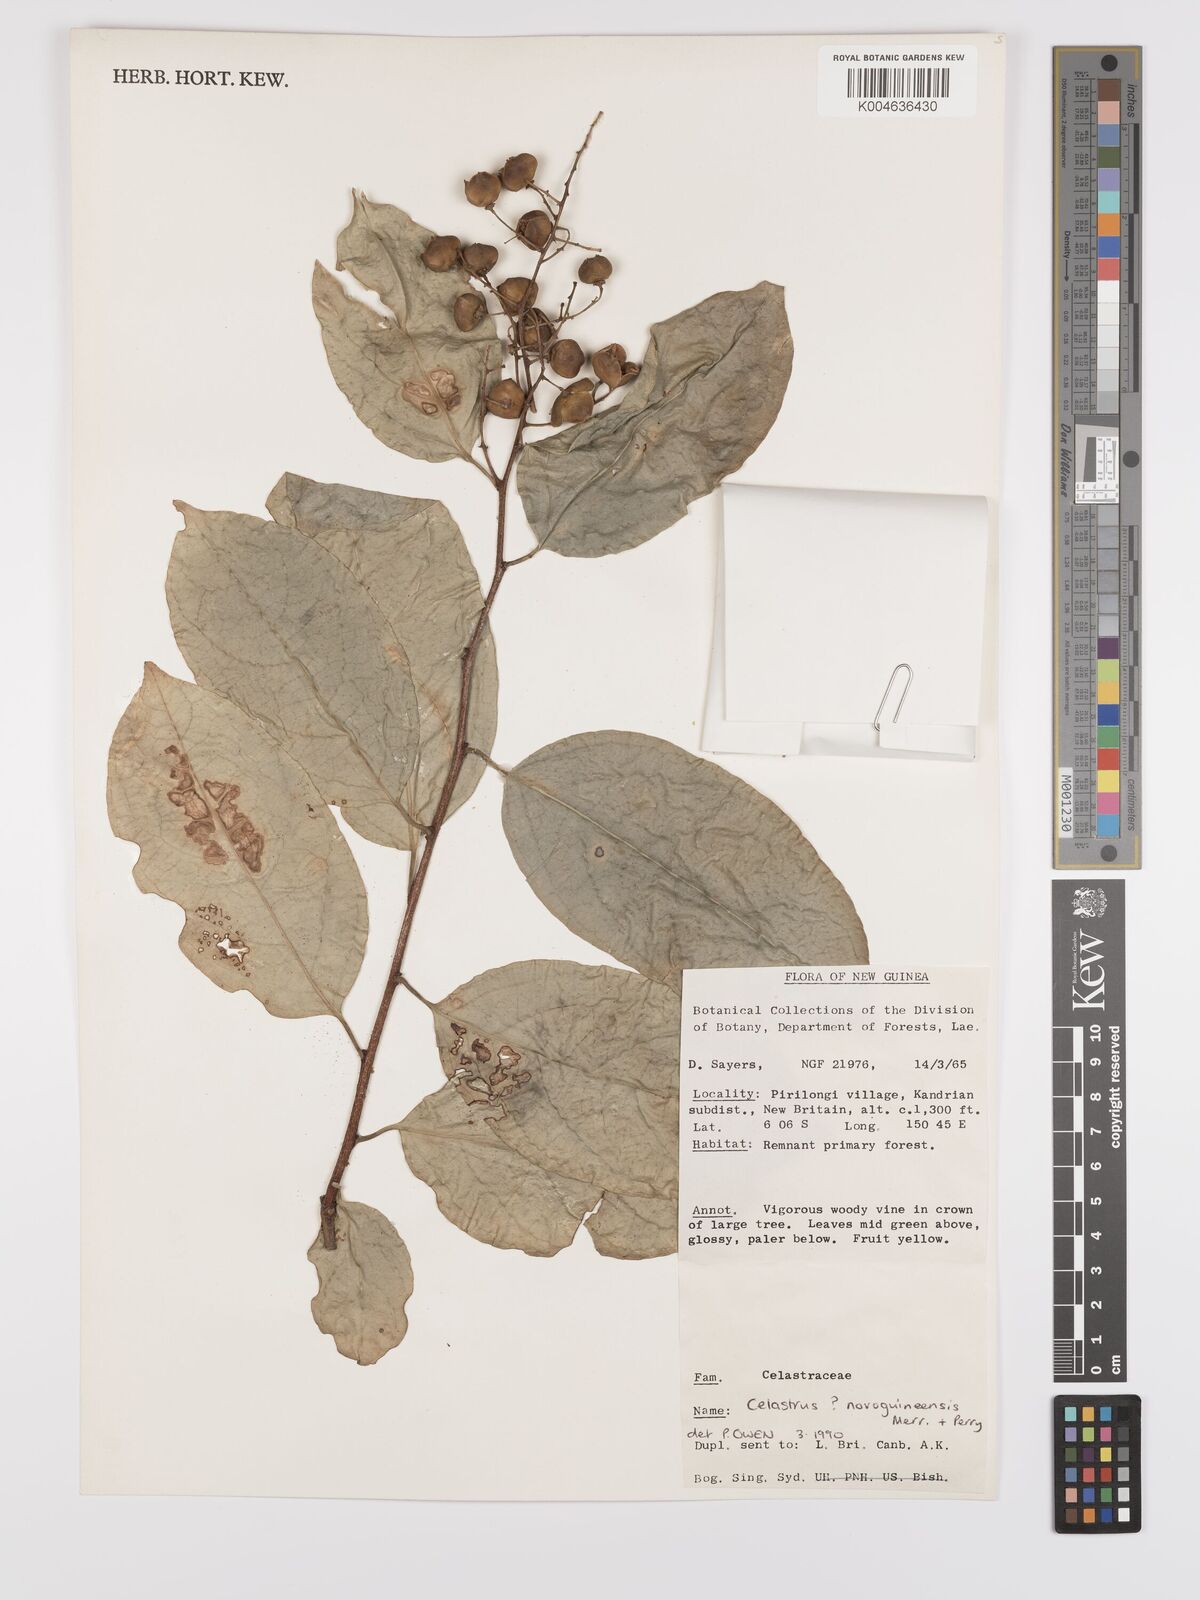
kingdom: Plantae
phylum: Tracheophyta
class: Magnoliopsida
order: Celastrales
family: Celastraceae
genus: Celastrus
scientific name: Celastrus novoguineensis
